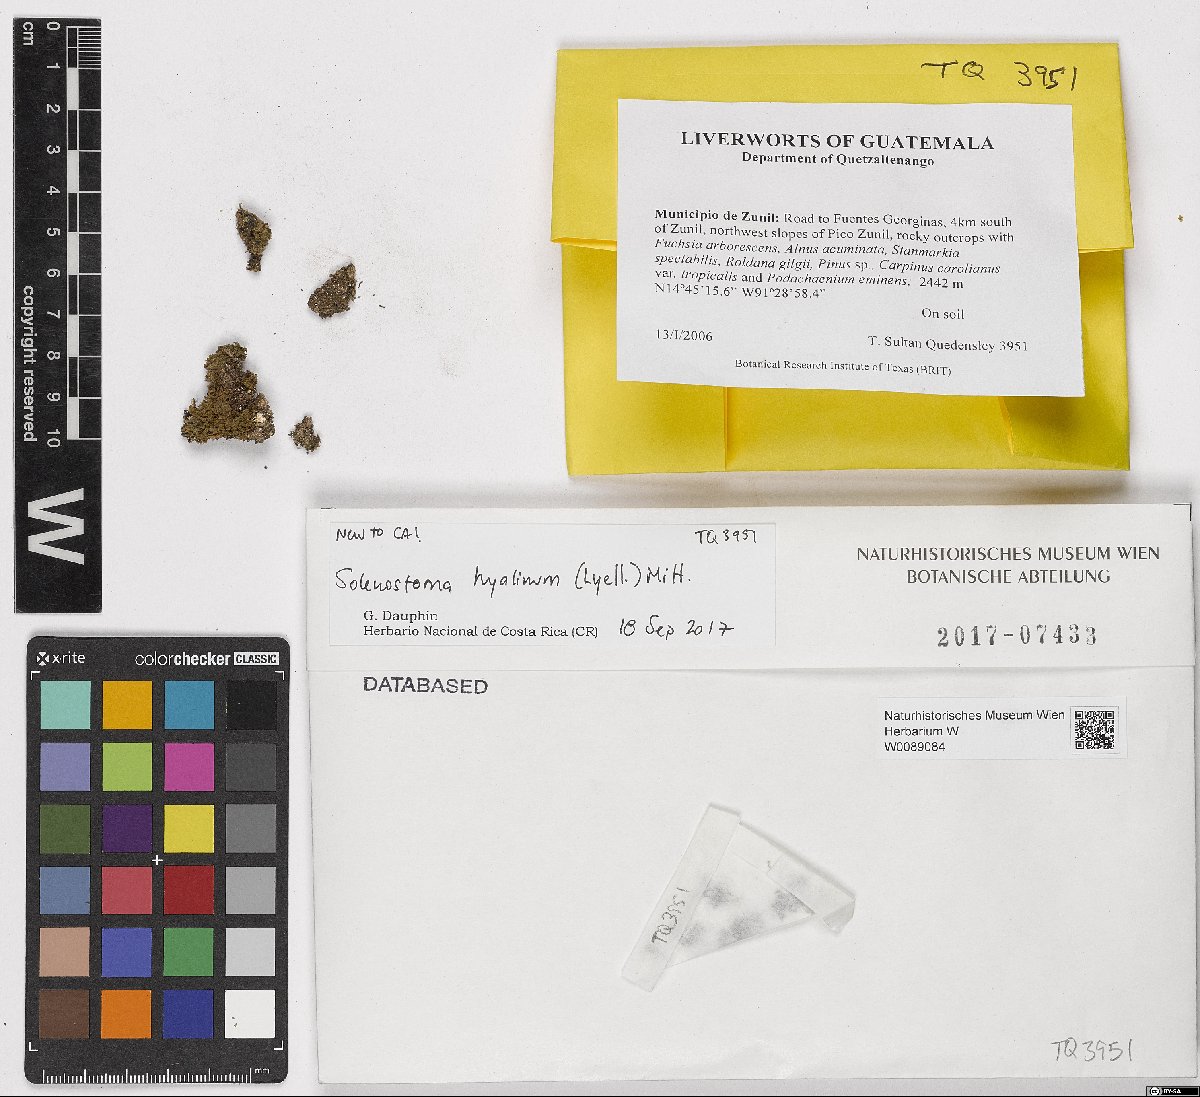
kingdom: Plantae
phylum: Marchantiophyta
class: Jungermanniopsida
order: Jungermanniales
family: Solenostomataceae
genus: Solenostoma
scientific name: Solenostoma hyalinum
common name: Transparent flapwort
